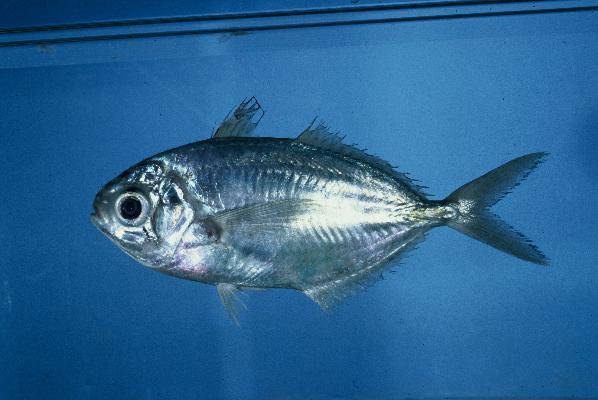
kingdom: Animalia
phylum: Chordata
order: Perciformes
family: Ariommatidae
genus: Ariomma
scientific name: Ariomma indicum
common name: Indian driftfish
